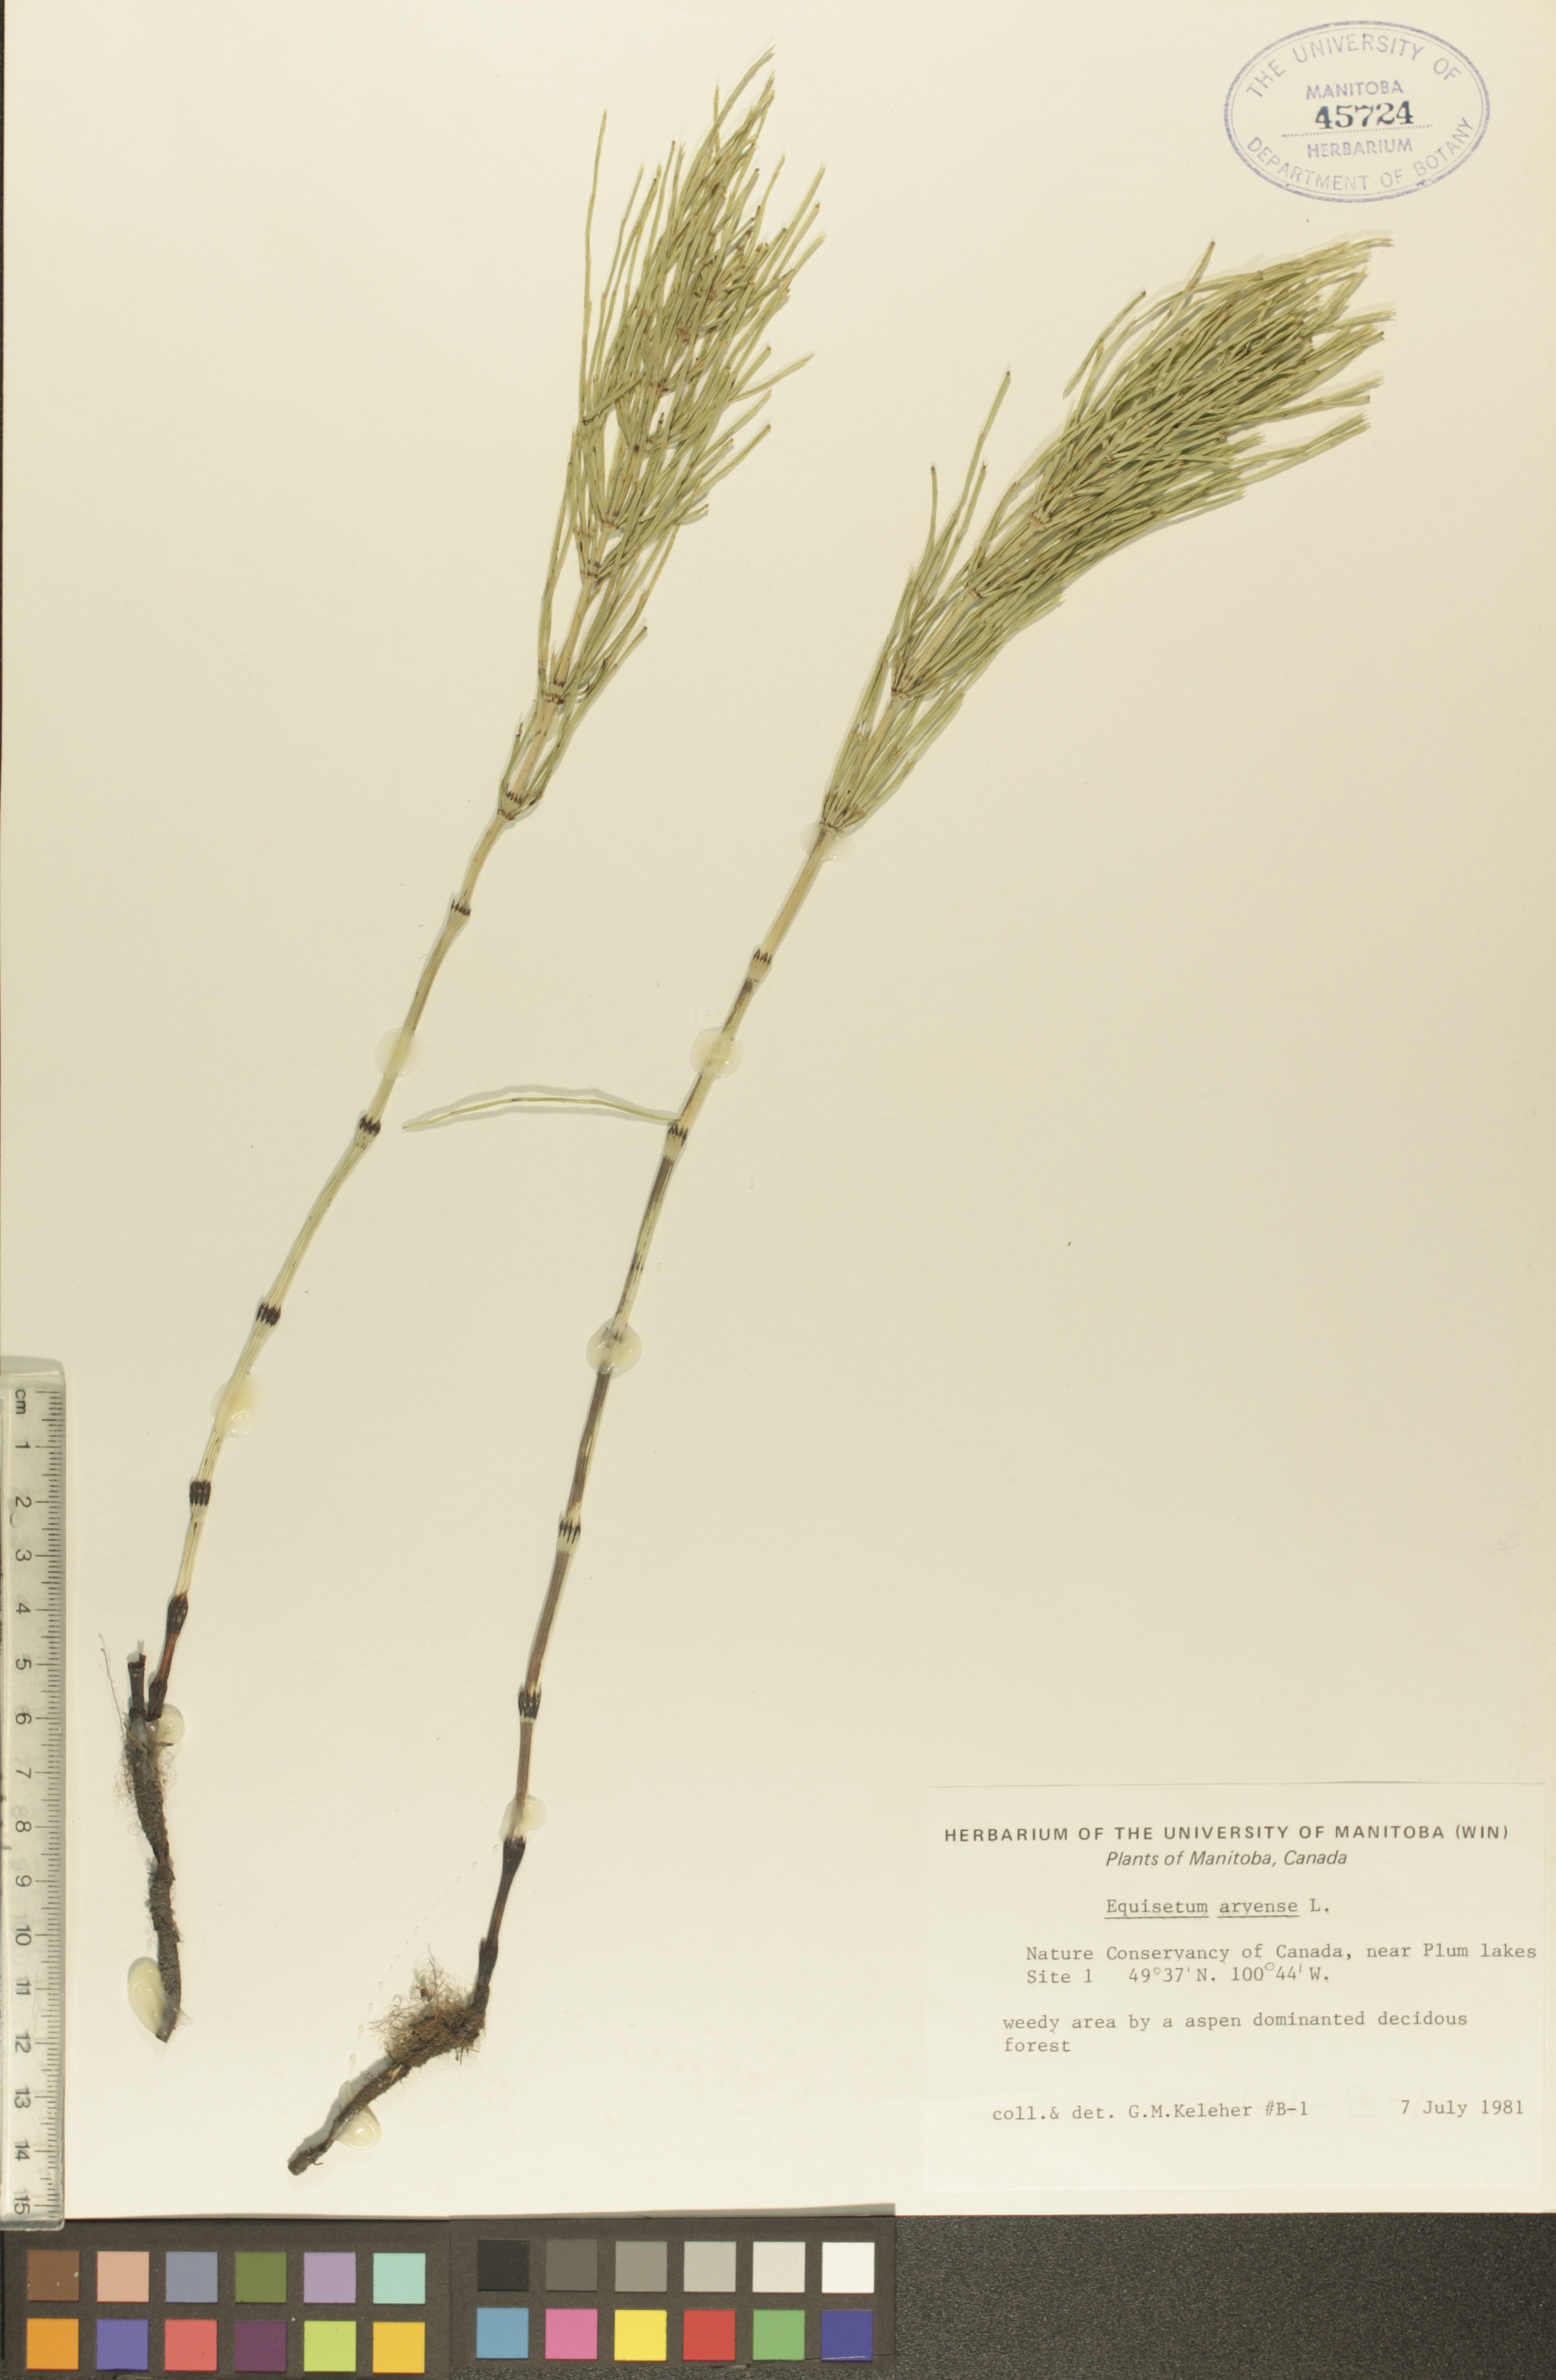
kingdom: Plantae
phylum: Tracheophyta
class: Polypodiopsida
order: Equisetales
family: Equisetaceae
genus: Equisetum
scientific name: Equisetum arvense
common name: Field horsetail
